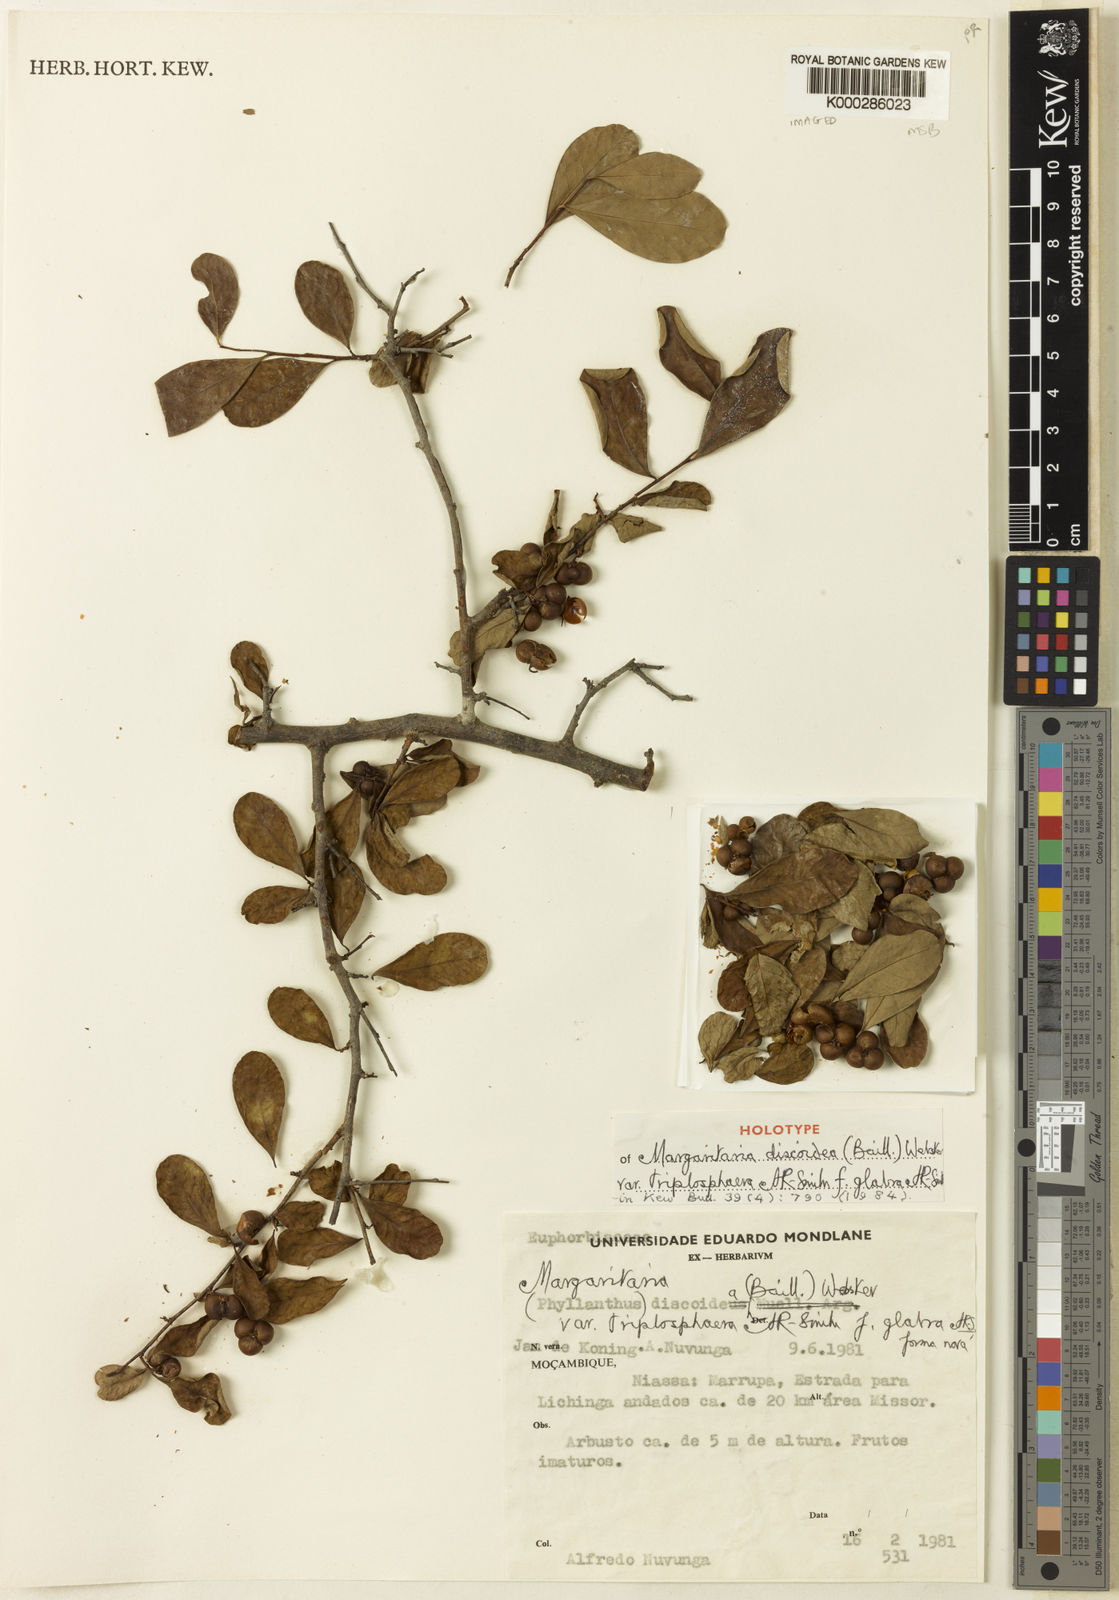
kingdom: Plantae
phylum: Tracheophyta
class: Magnoliopsida
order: Malpighiales
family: Phyllanthaceae
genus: Margaritaria
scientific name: Margaritaria discoidea
